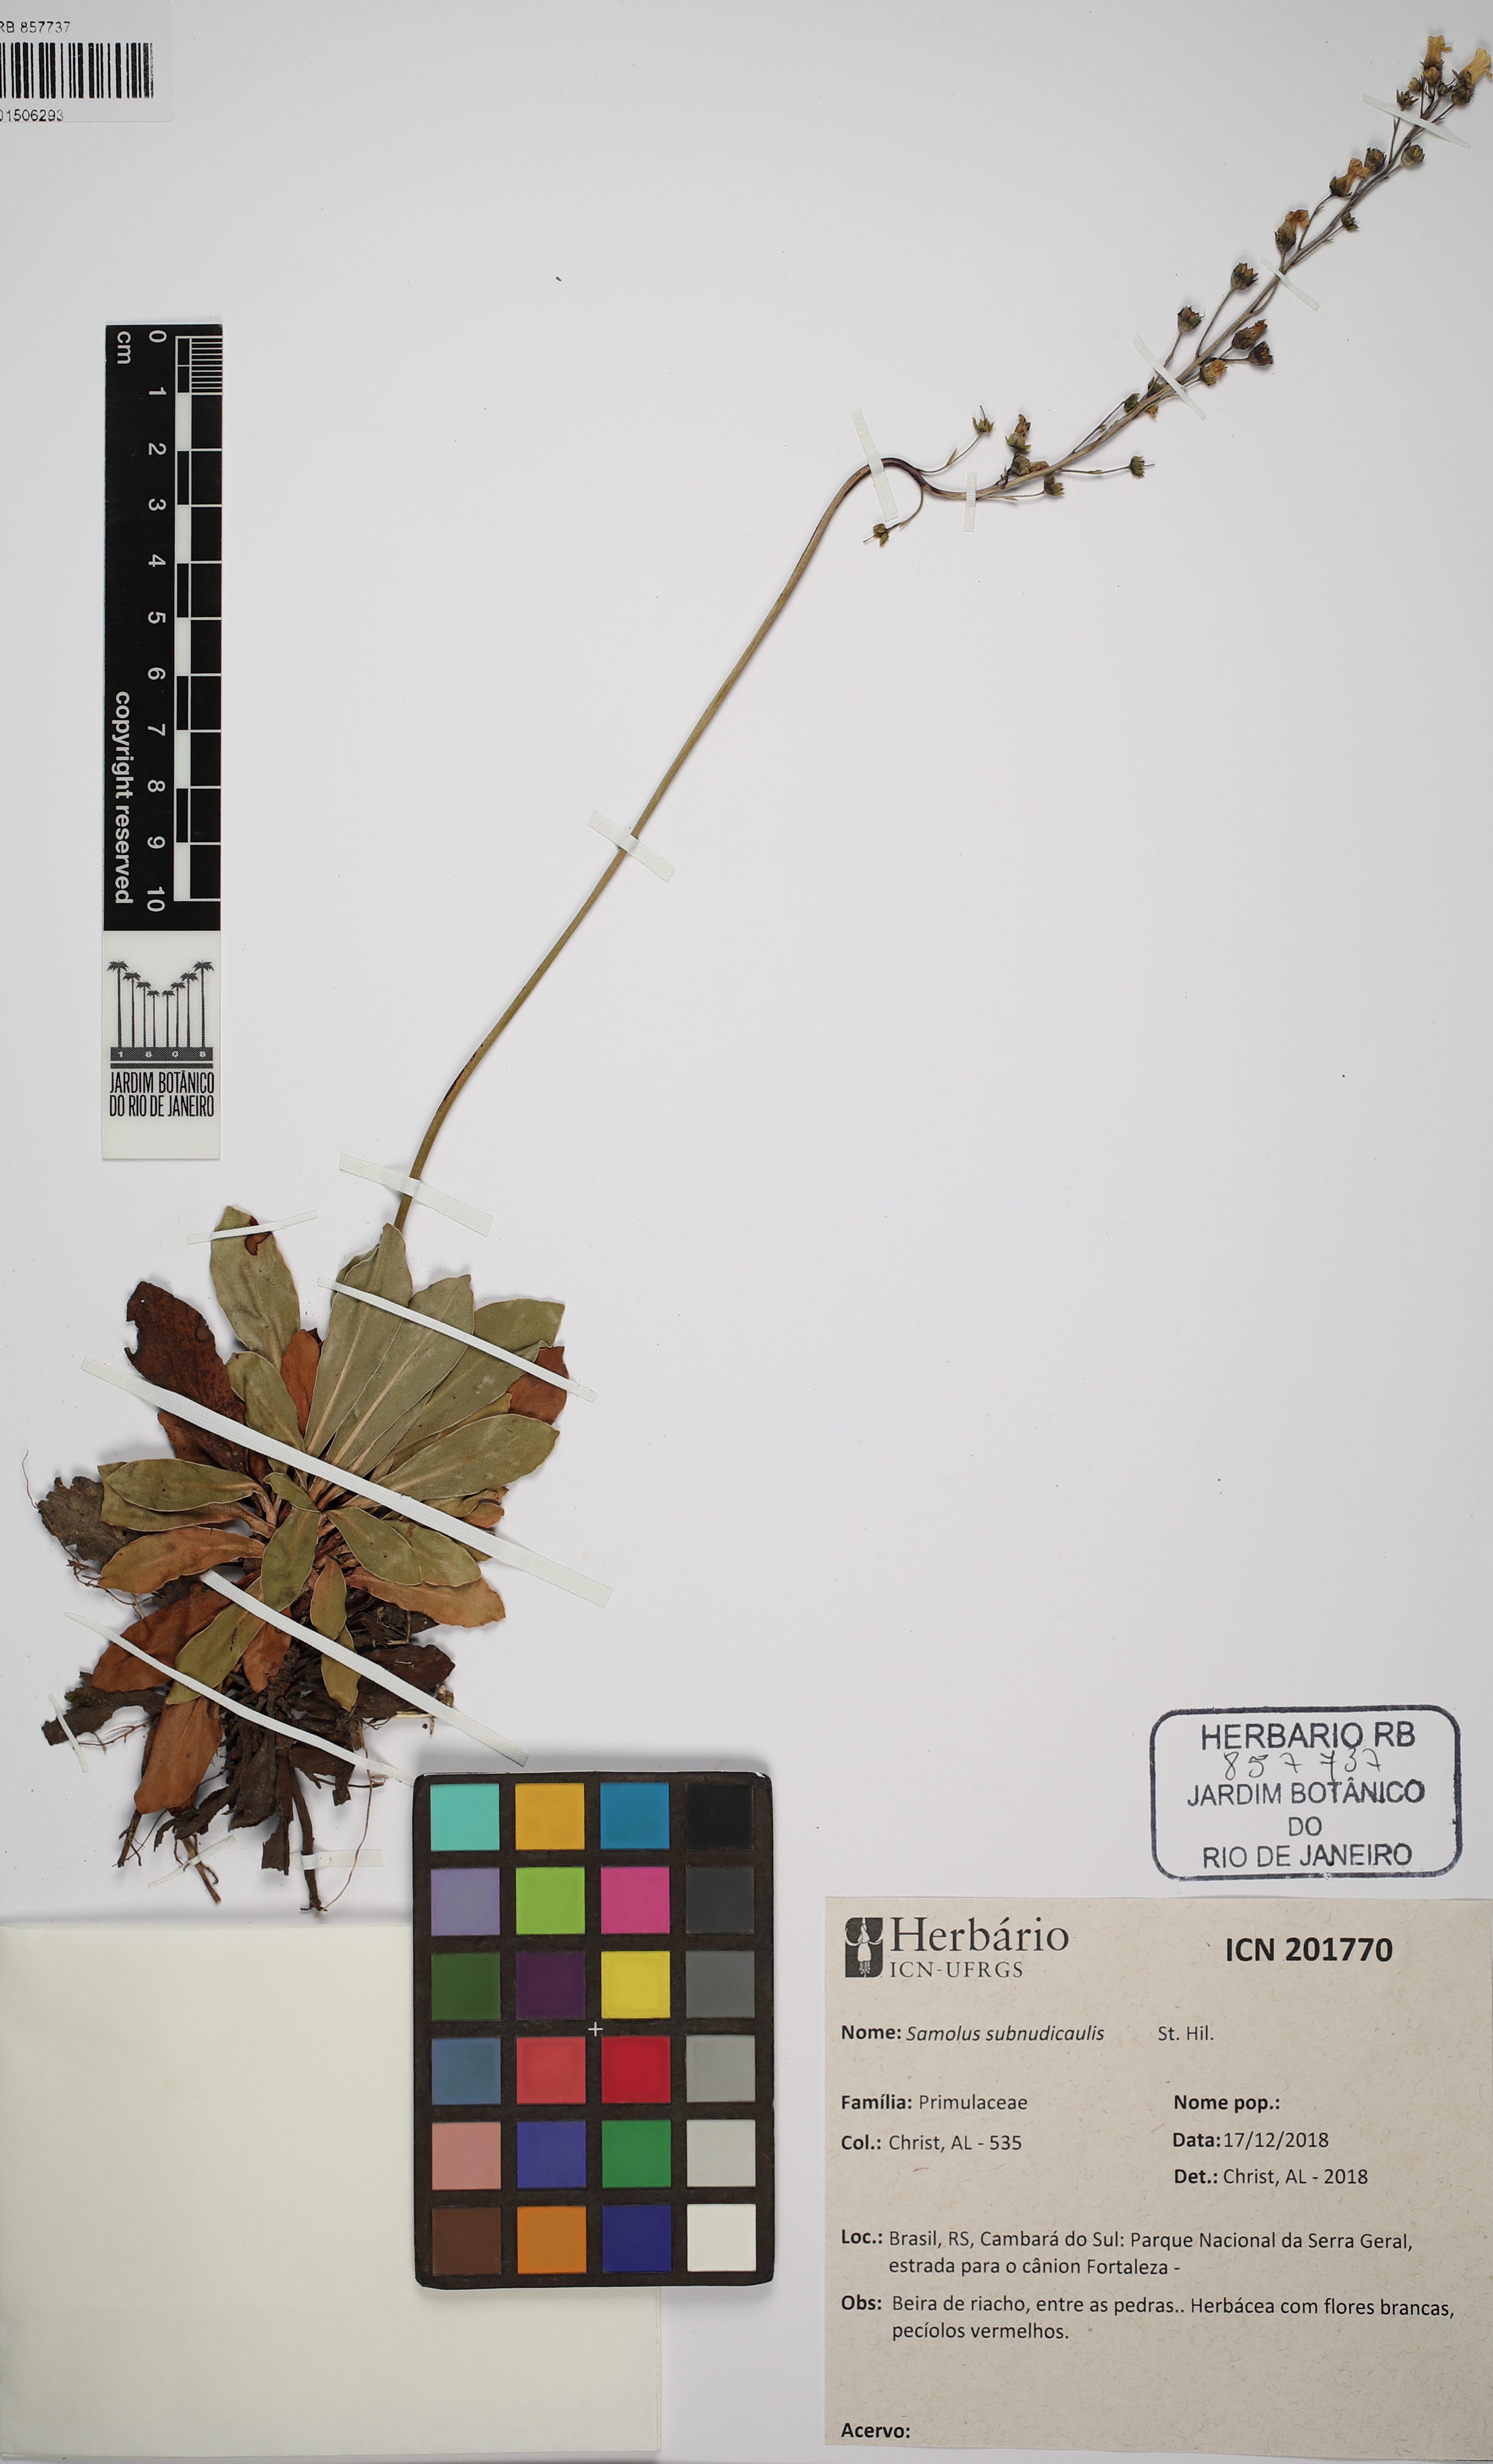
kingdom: Plantae
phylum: Tracheophyta
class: Magnoliopsida
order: Ericales
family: Primulaceae
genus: Samolus
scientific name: Samolus subnudicaulis
